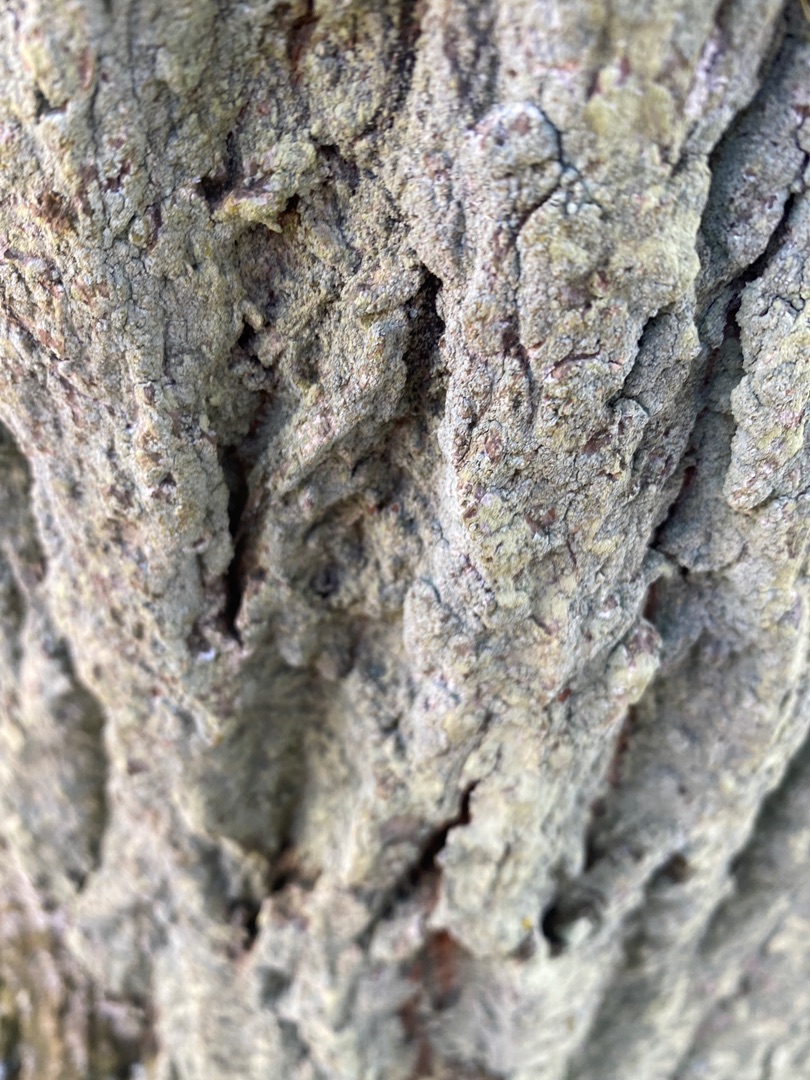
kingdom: Fungi
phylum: Ascomycota
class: Lecanoromycetes
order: Lecanorales
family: Stereocaulaceae
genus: Lepraria
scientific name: Lepraria
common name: Støvlav
